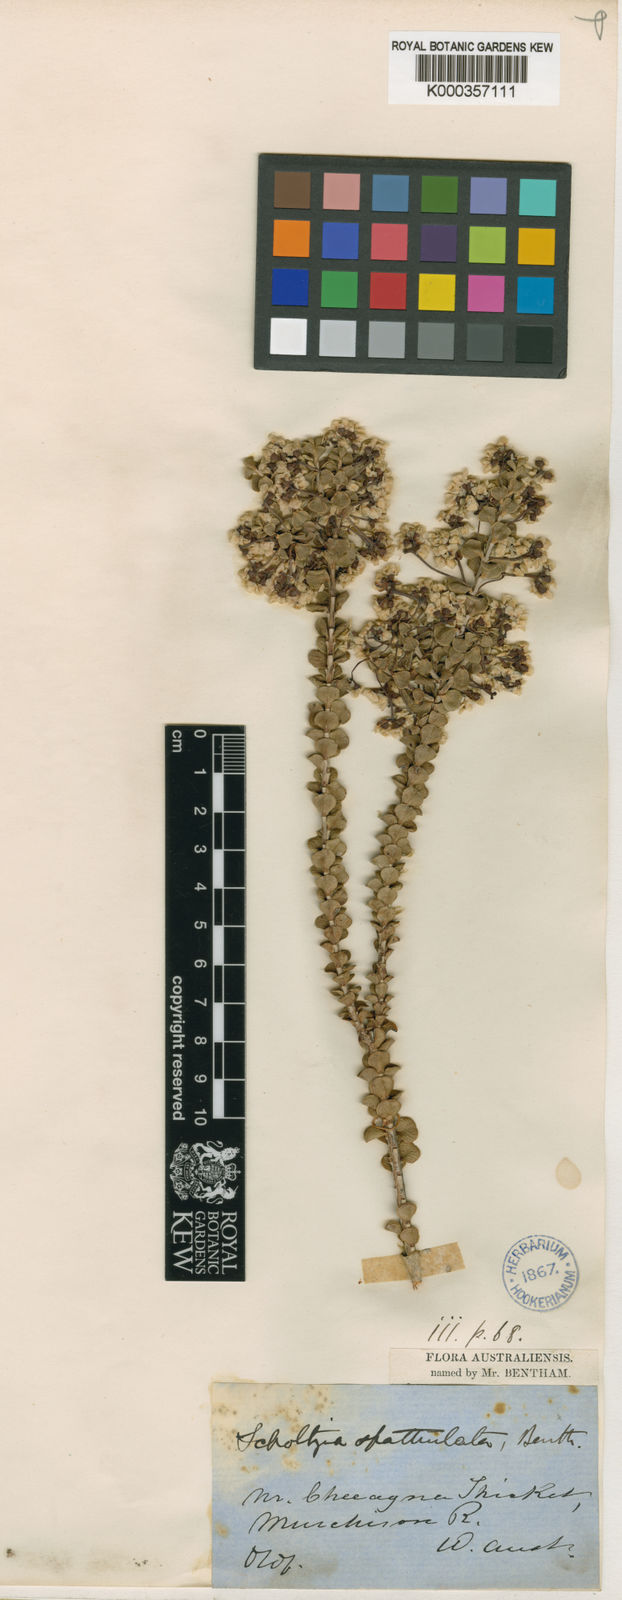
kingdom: Plantae
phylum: Tracheophyta
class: Magnoliopsida
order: Myrtales
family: Myrtaceae
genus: Scholtzia
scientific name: Scholtzia spathulata
